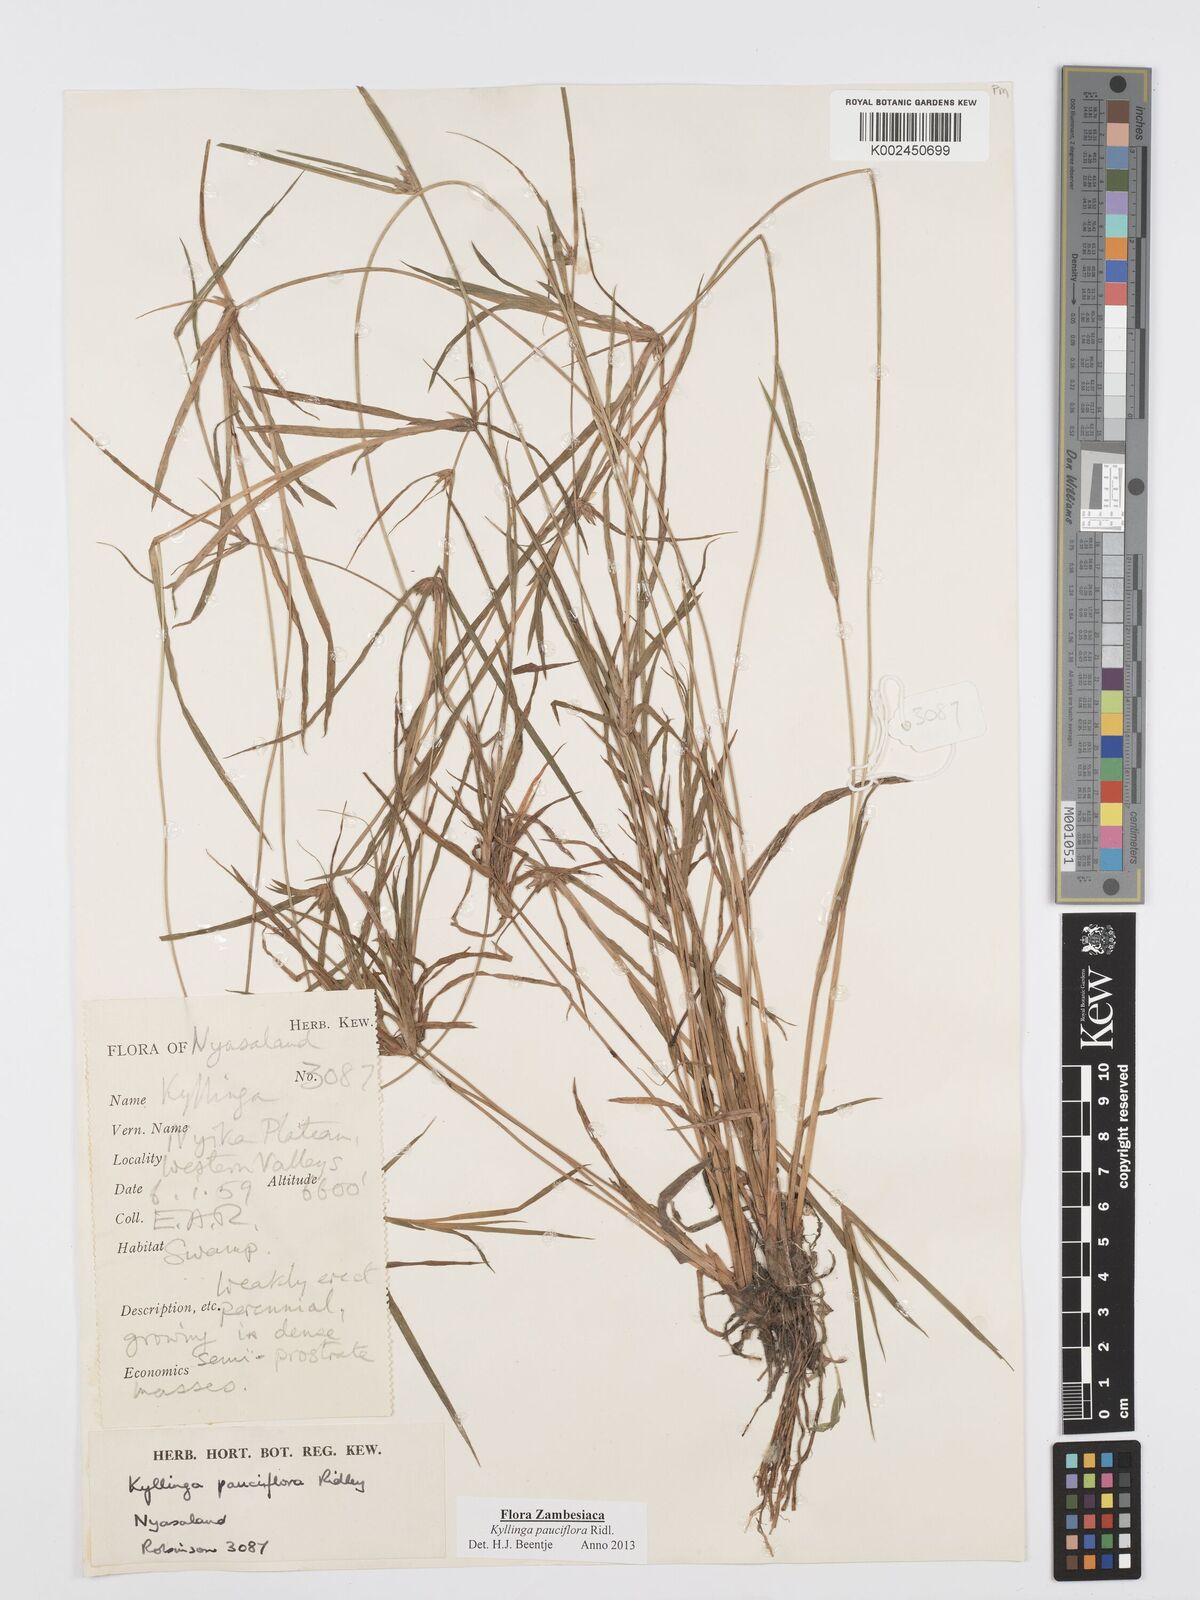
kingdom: Plantae
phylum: Tracheophyta
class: Liliopsida
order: Poales
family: Cyperaceae
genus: Cyperus
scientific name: Cyperus
